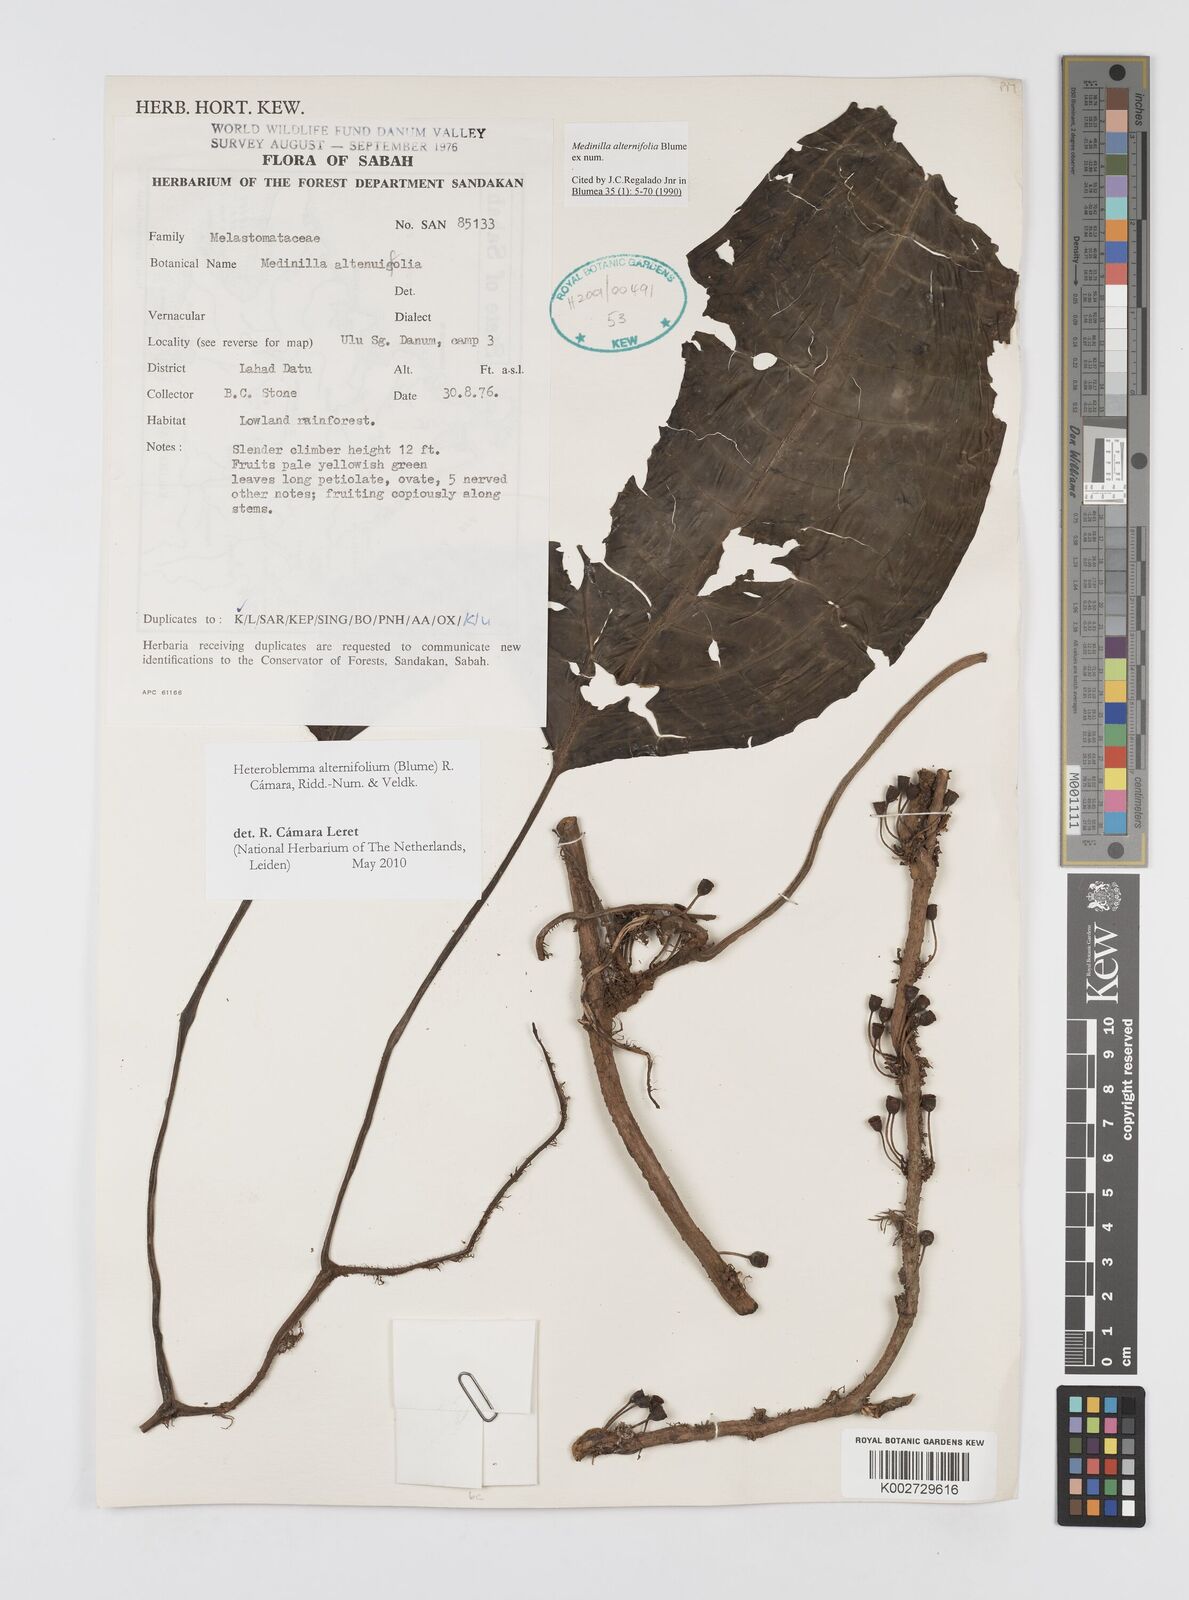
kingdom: Plantae
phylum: Tracheophyta
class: Magnoliopsida
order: Myrtales
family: Melastomataceae
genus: Heteroblemma
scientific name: Heteroblemma alternifolium
